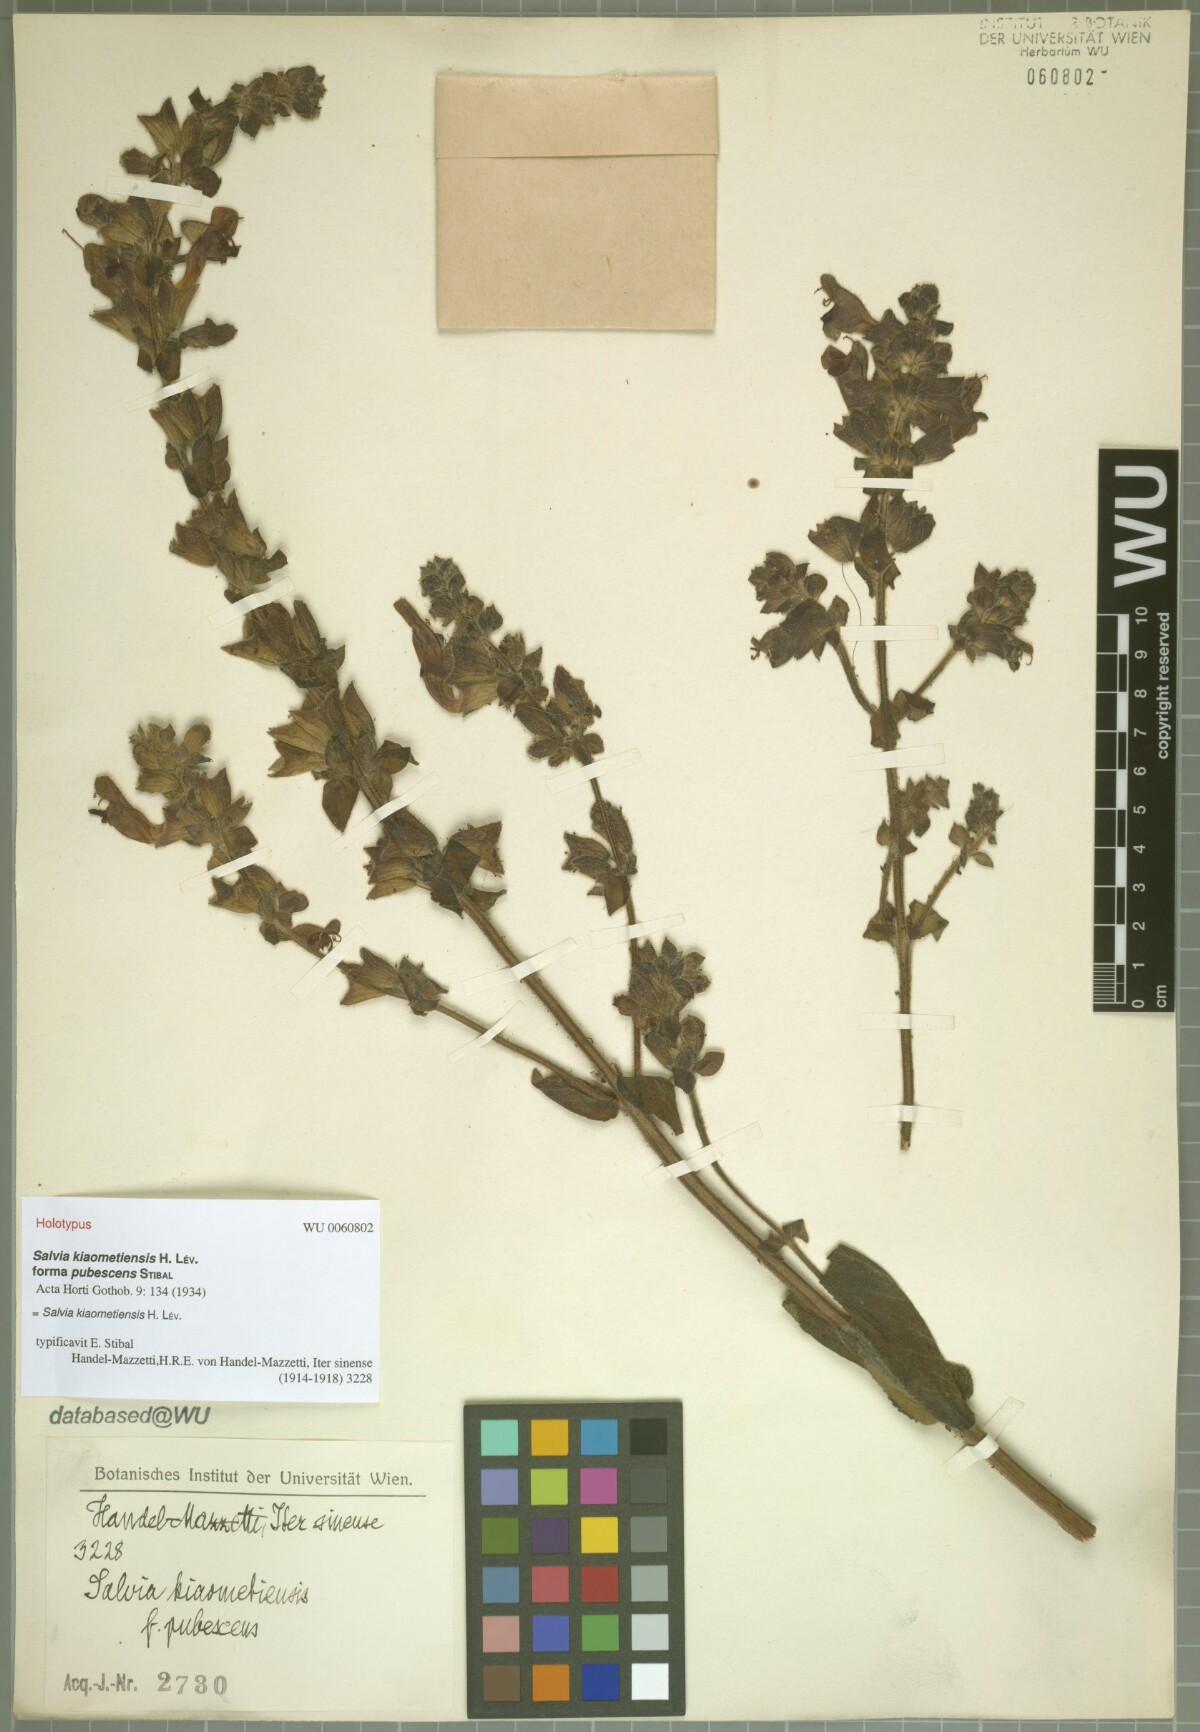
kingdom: Plantae
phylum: Tracheophyta
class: Magnoliopsida
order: Lamiales
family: Lamiaceae
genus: Salvia
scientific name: Salvia kiaometiensis
